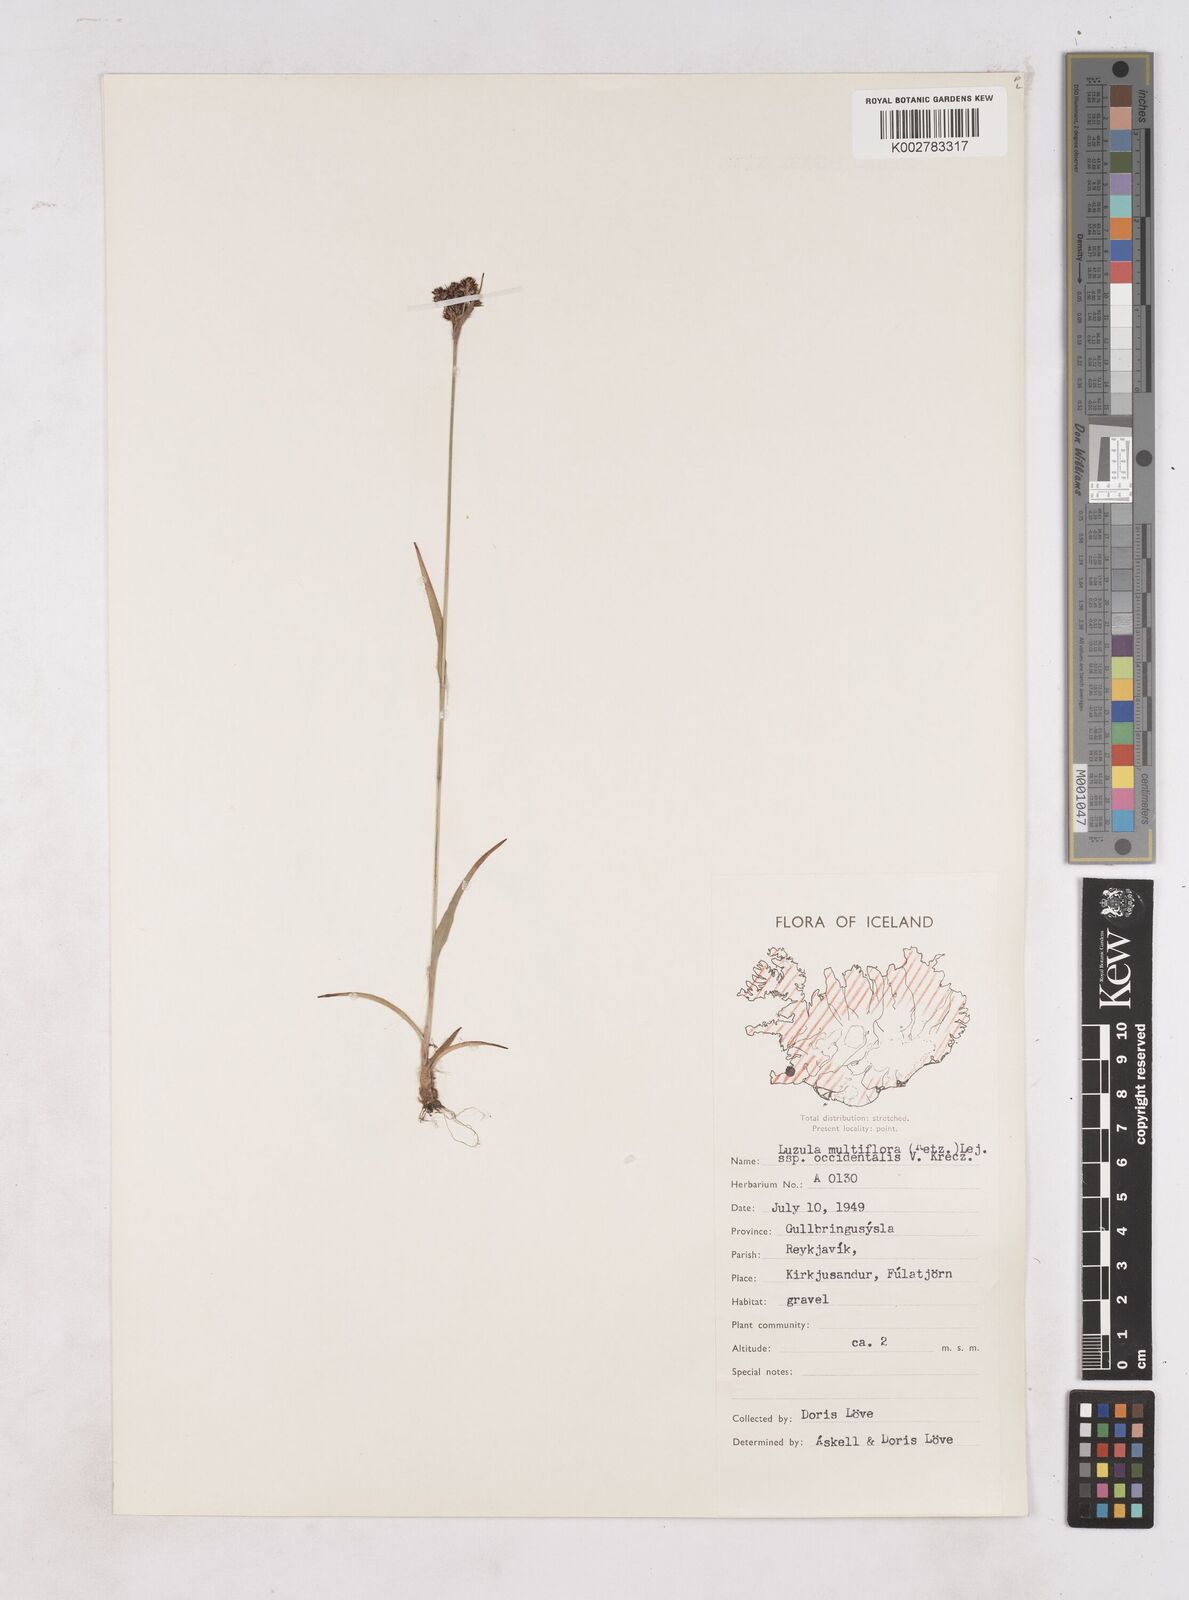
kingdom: Plantae
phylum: Tracheophyta
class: Liliopsida
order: Poales
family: Juncaceae
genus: Luzula
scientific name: Luzula multiflora
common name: Heath wood-rush
